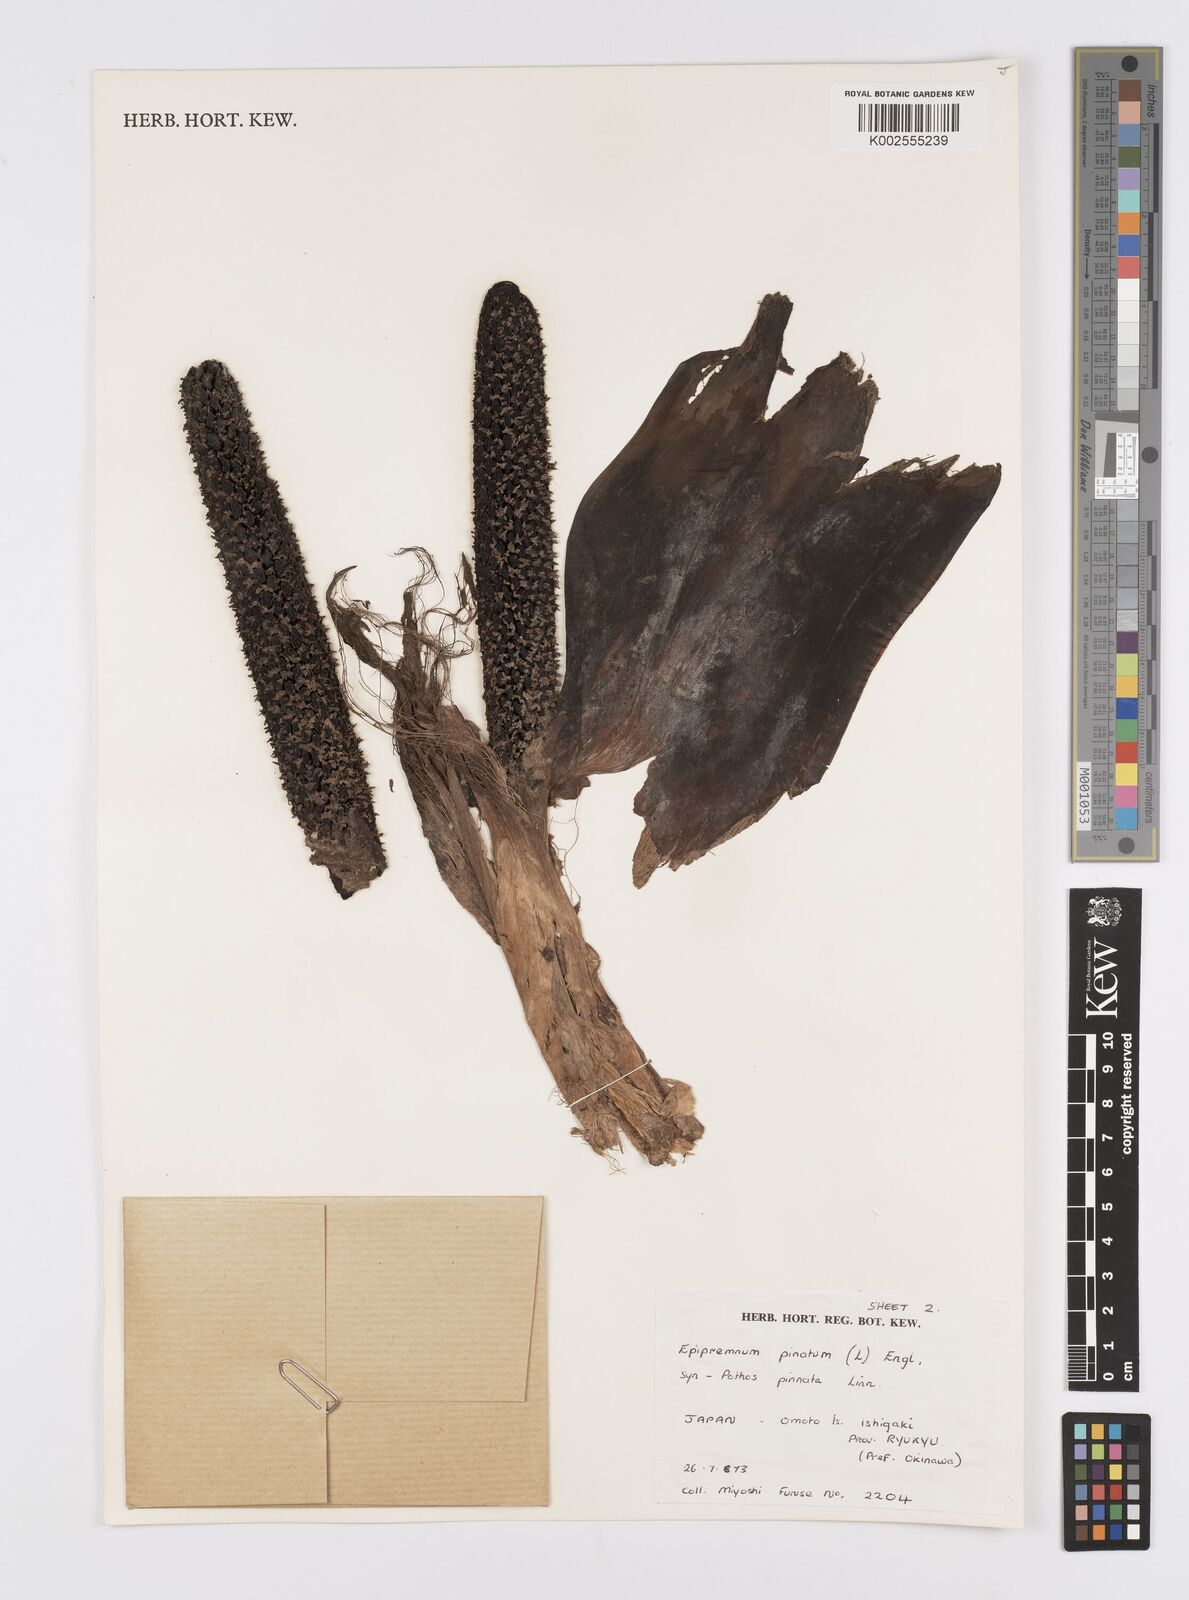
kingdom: Plantae
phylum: Tracheophyta
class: Liliopsida
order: Alismatales
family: Araceae
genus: Epipremnum
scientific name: Epipremnum pinnatum
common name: Centipede tongavine
